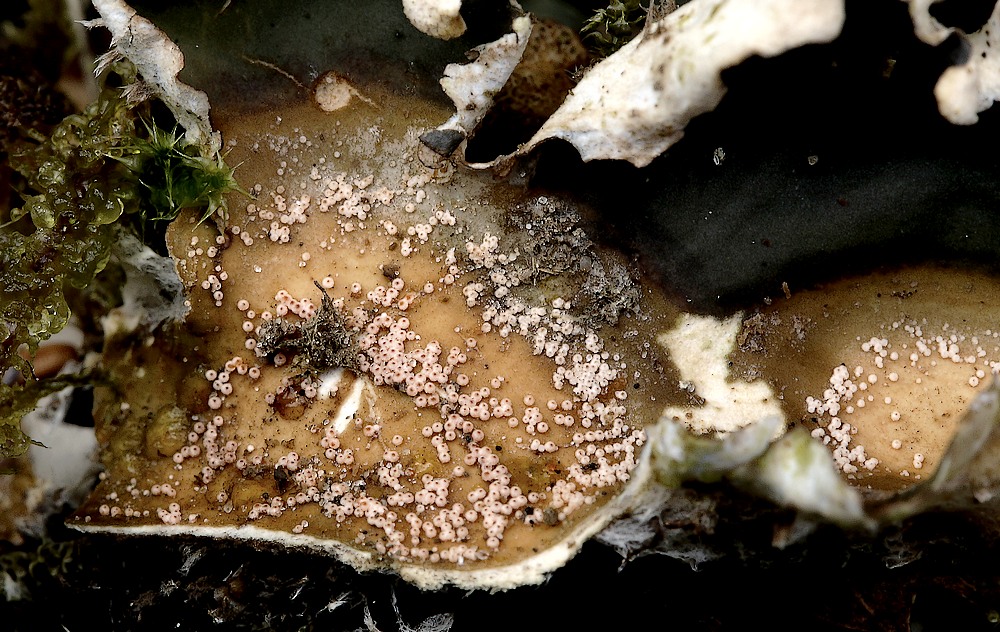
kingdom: Fungi
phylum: Ascomycota
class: Sordariomycetes
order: Hypocreales
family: Bionectriaceae
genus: Nectriopsis
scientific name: Nectriopsis lecanodes
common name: skjoldlav-gyldenkerne
